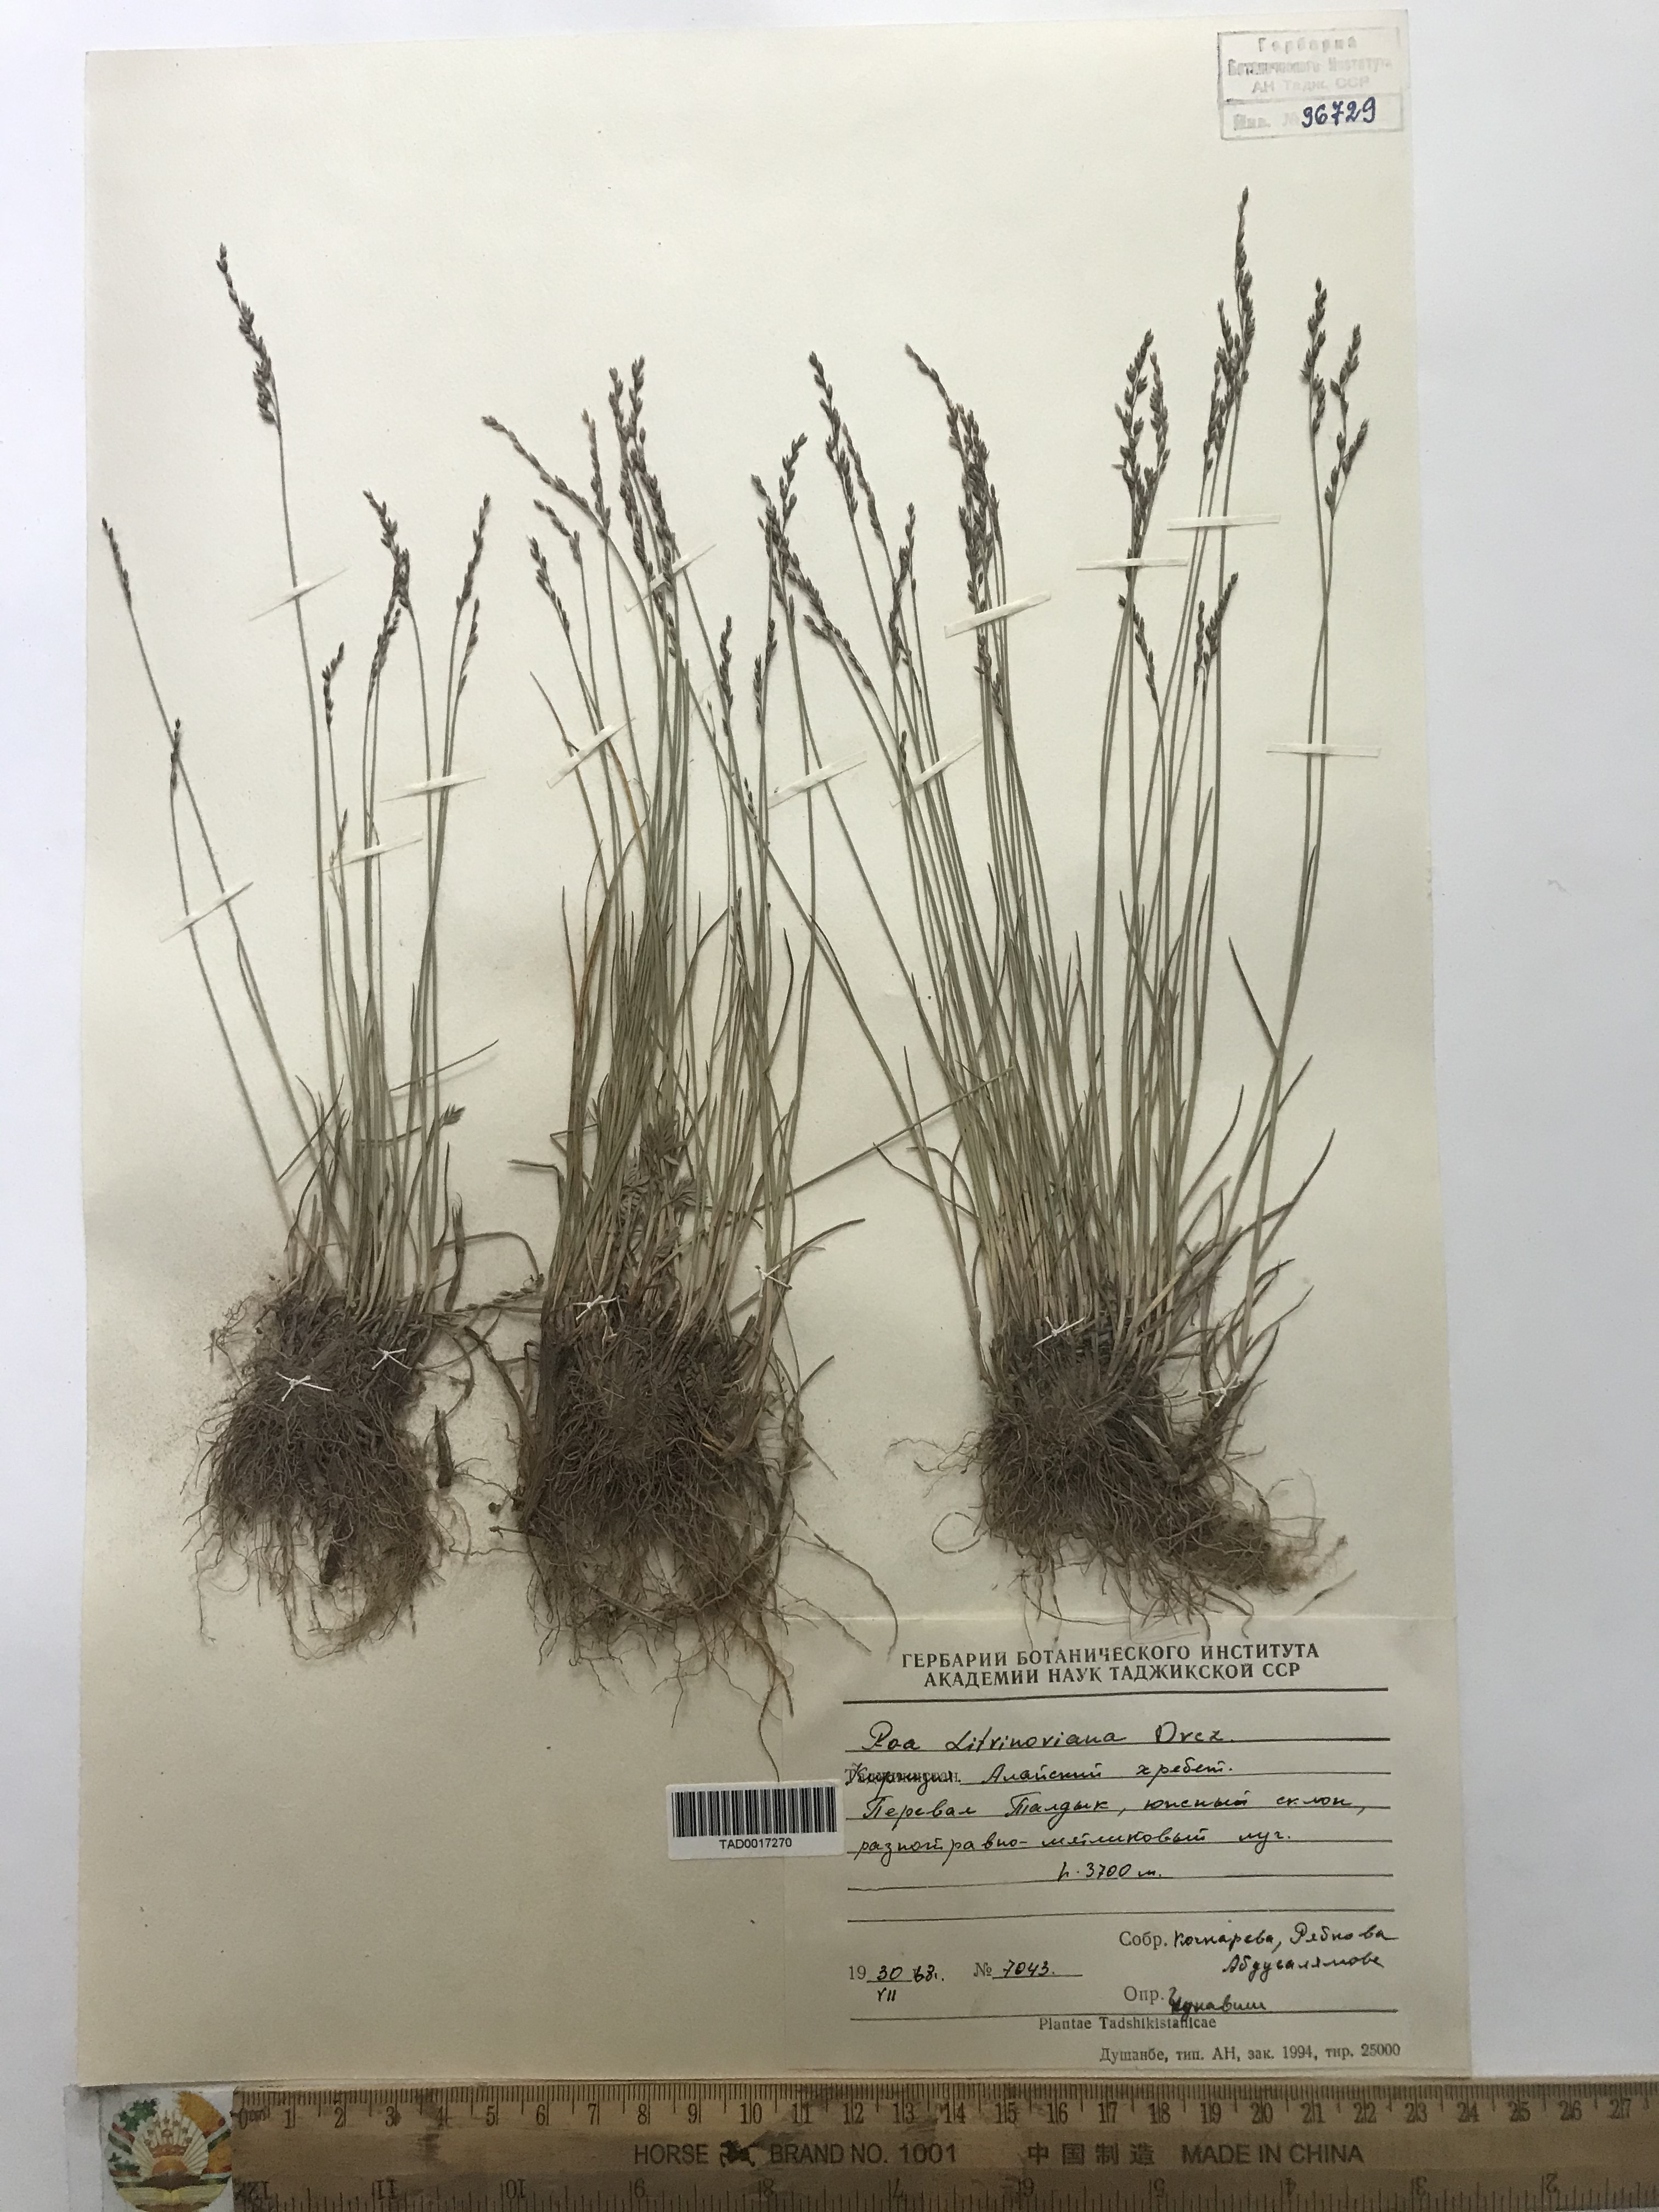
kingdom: Plantae
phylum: Tracheophyta
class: Liliopsida
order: Poales
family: Poaceae
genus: Poa
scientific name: Poa glauca
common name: Glaucous bluegrass
